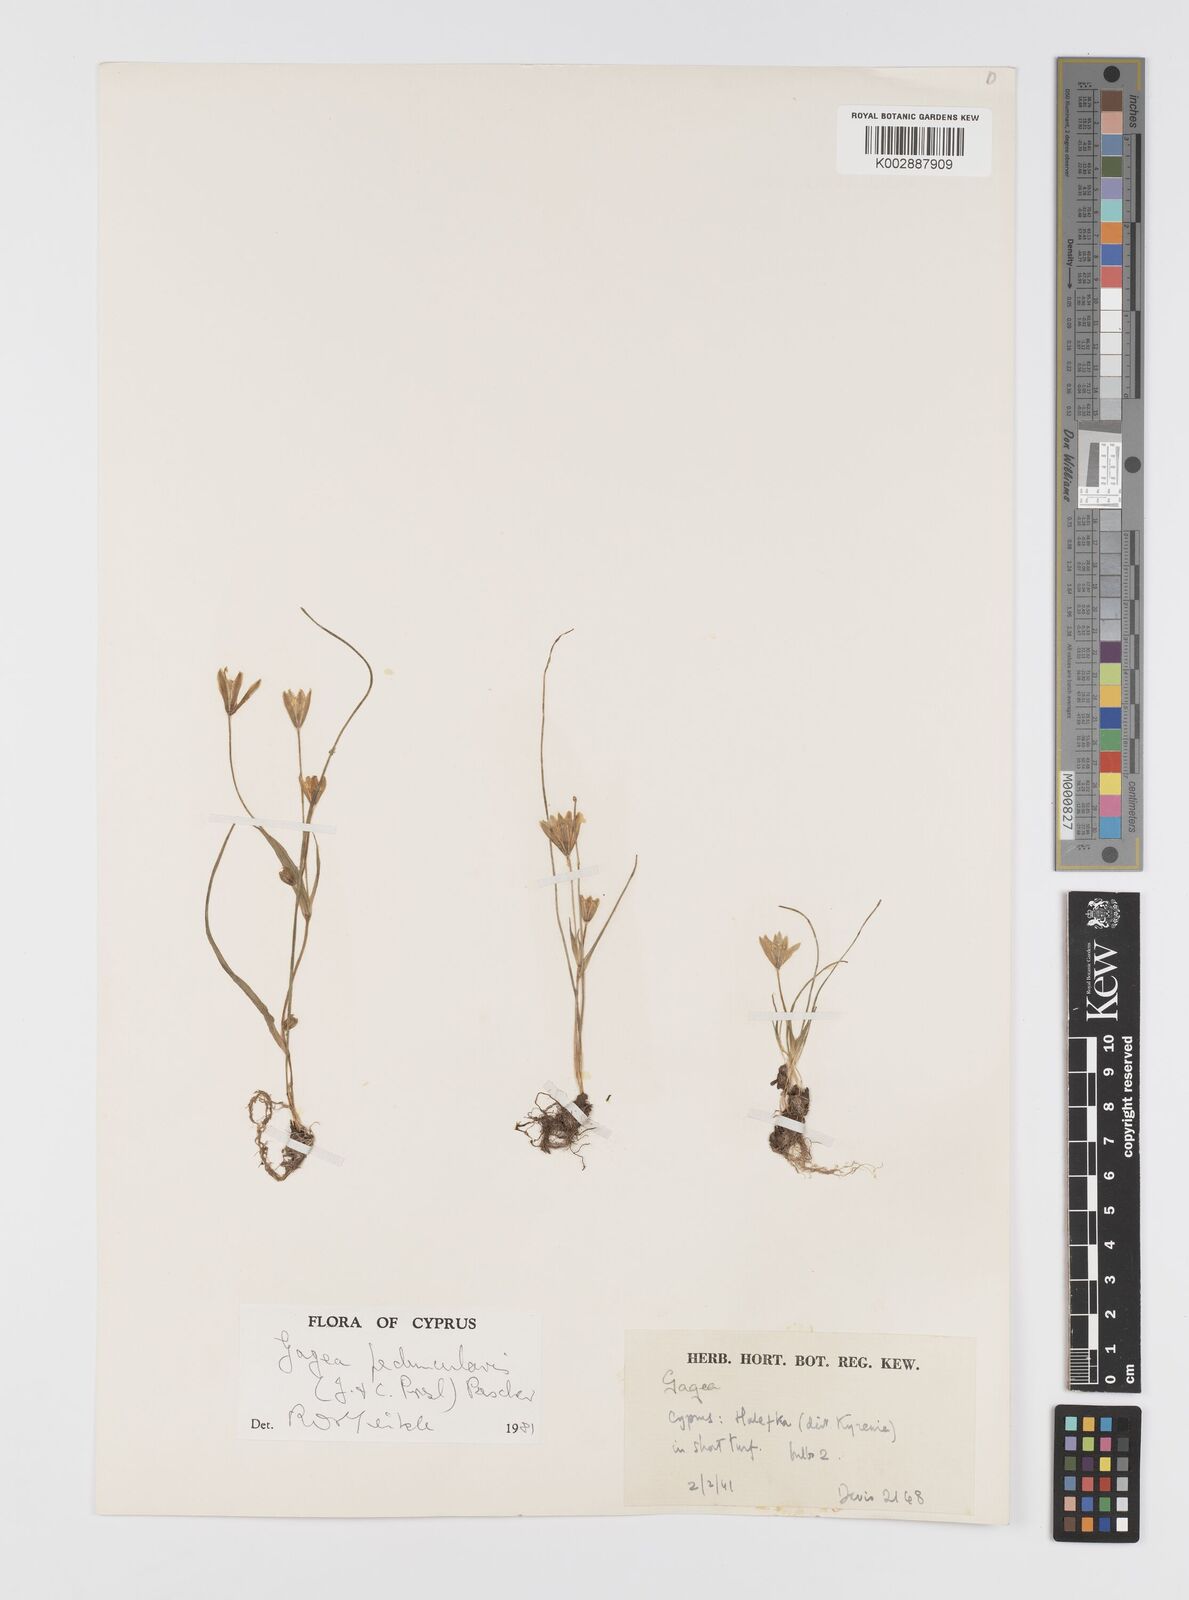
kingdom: Plantae
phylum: Tracheophyta
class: Liliopsida
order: Liliales
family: Liliaceae
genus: Gagea
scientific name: Gagea peduncularis
